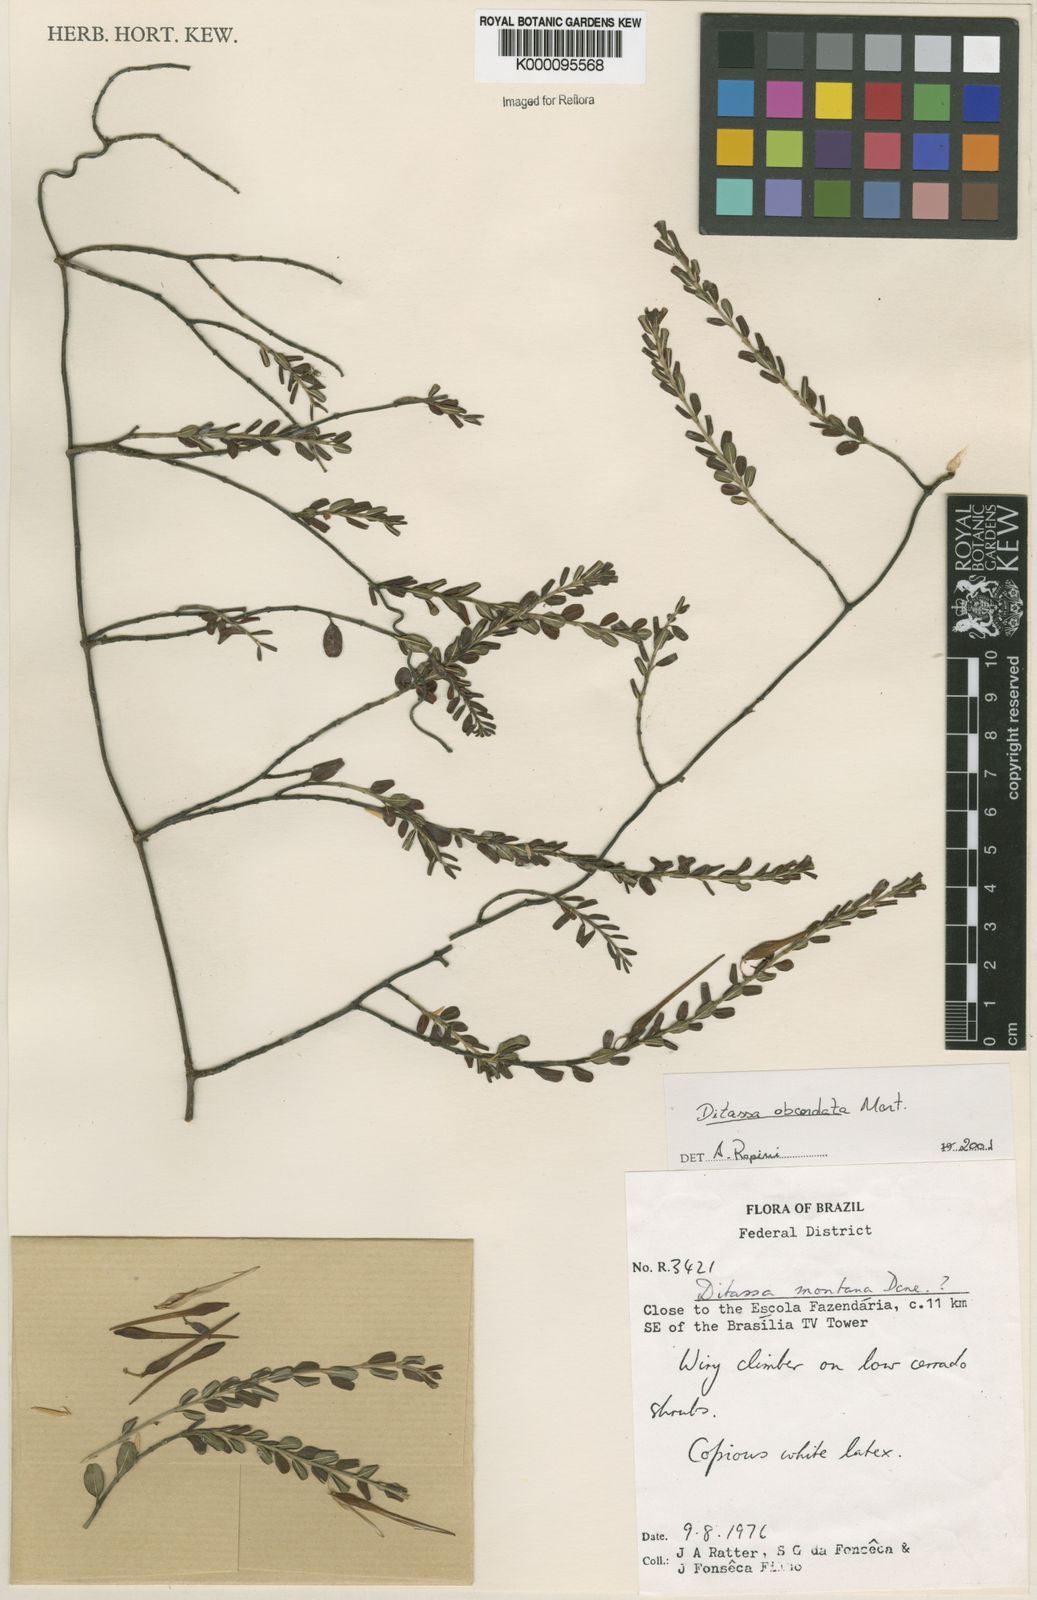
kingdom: Plantae
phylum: Tracheophyta
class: Magnoliopsida
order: Gentianales
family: Apocynaceae
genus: Ditassa
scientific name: Ditassa obcordata
